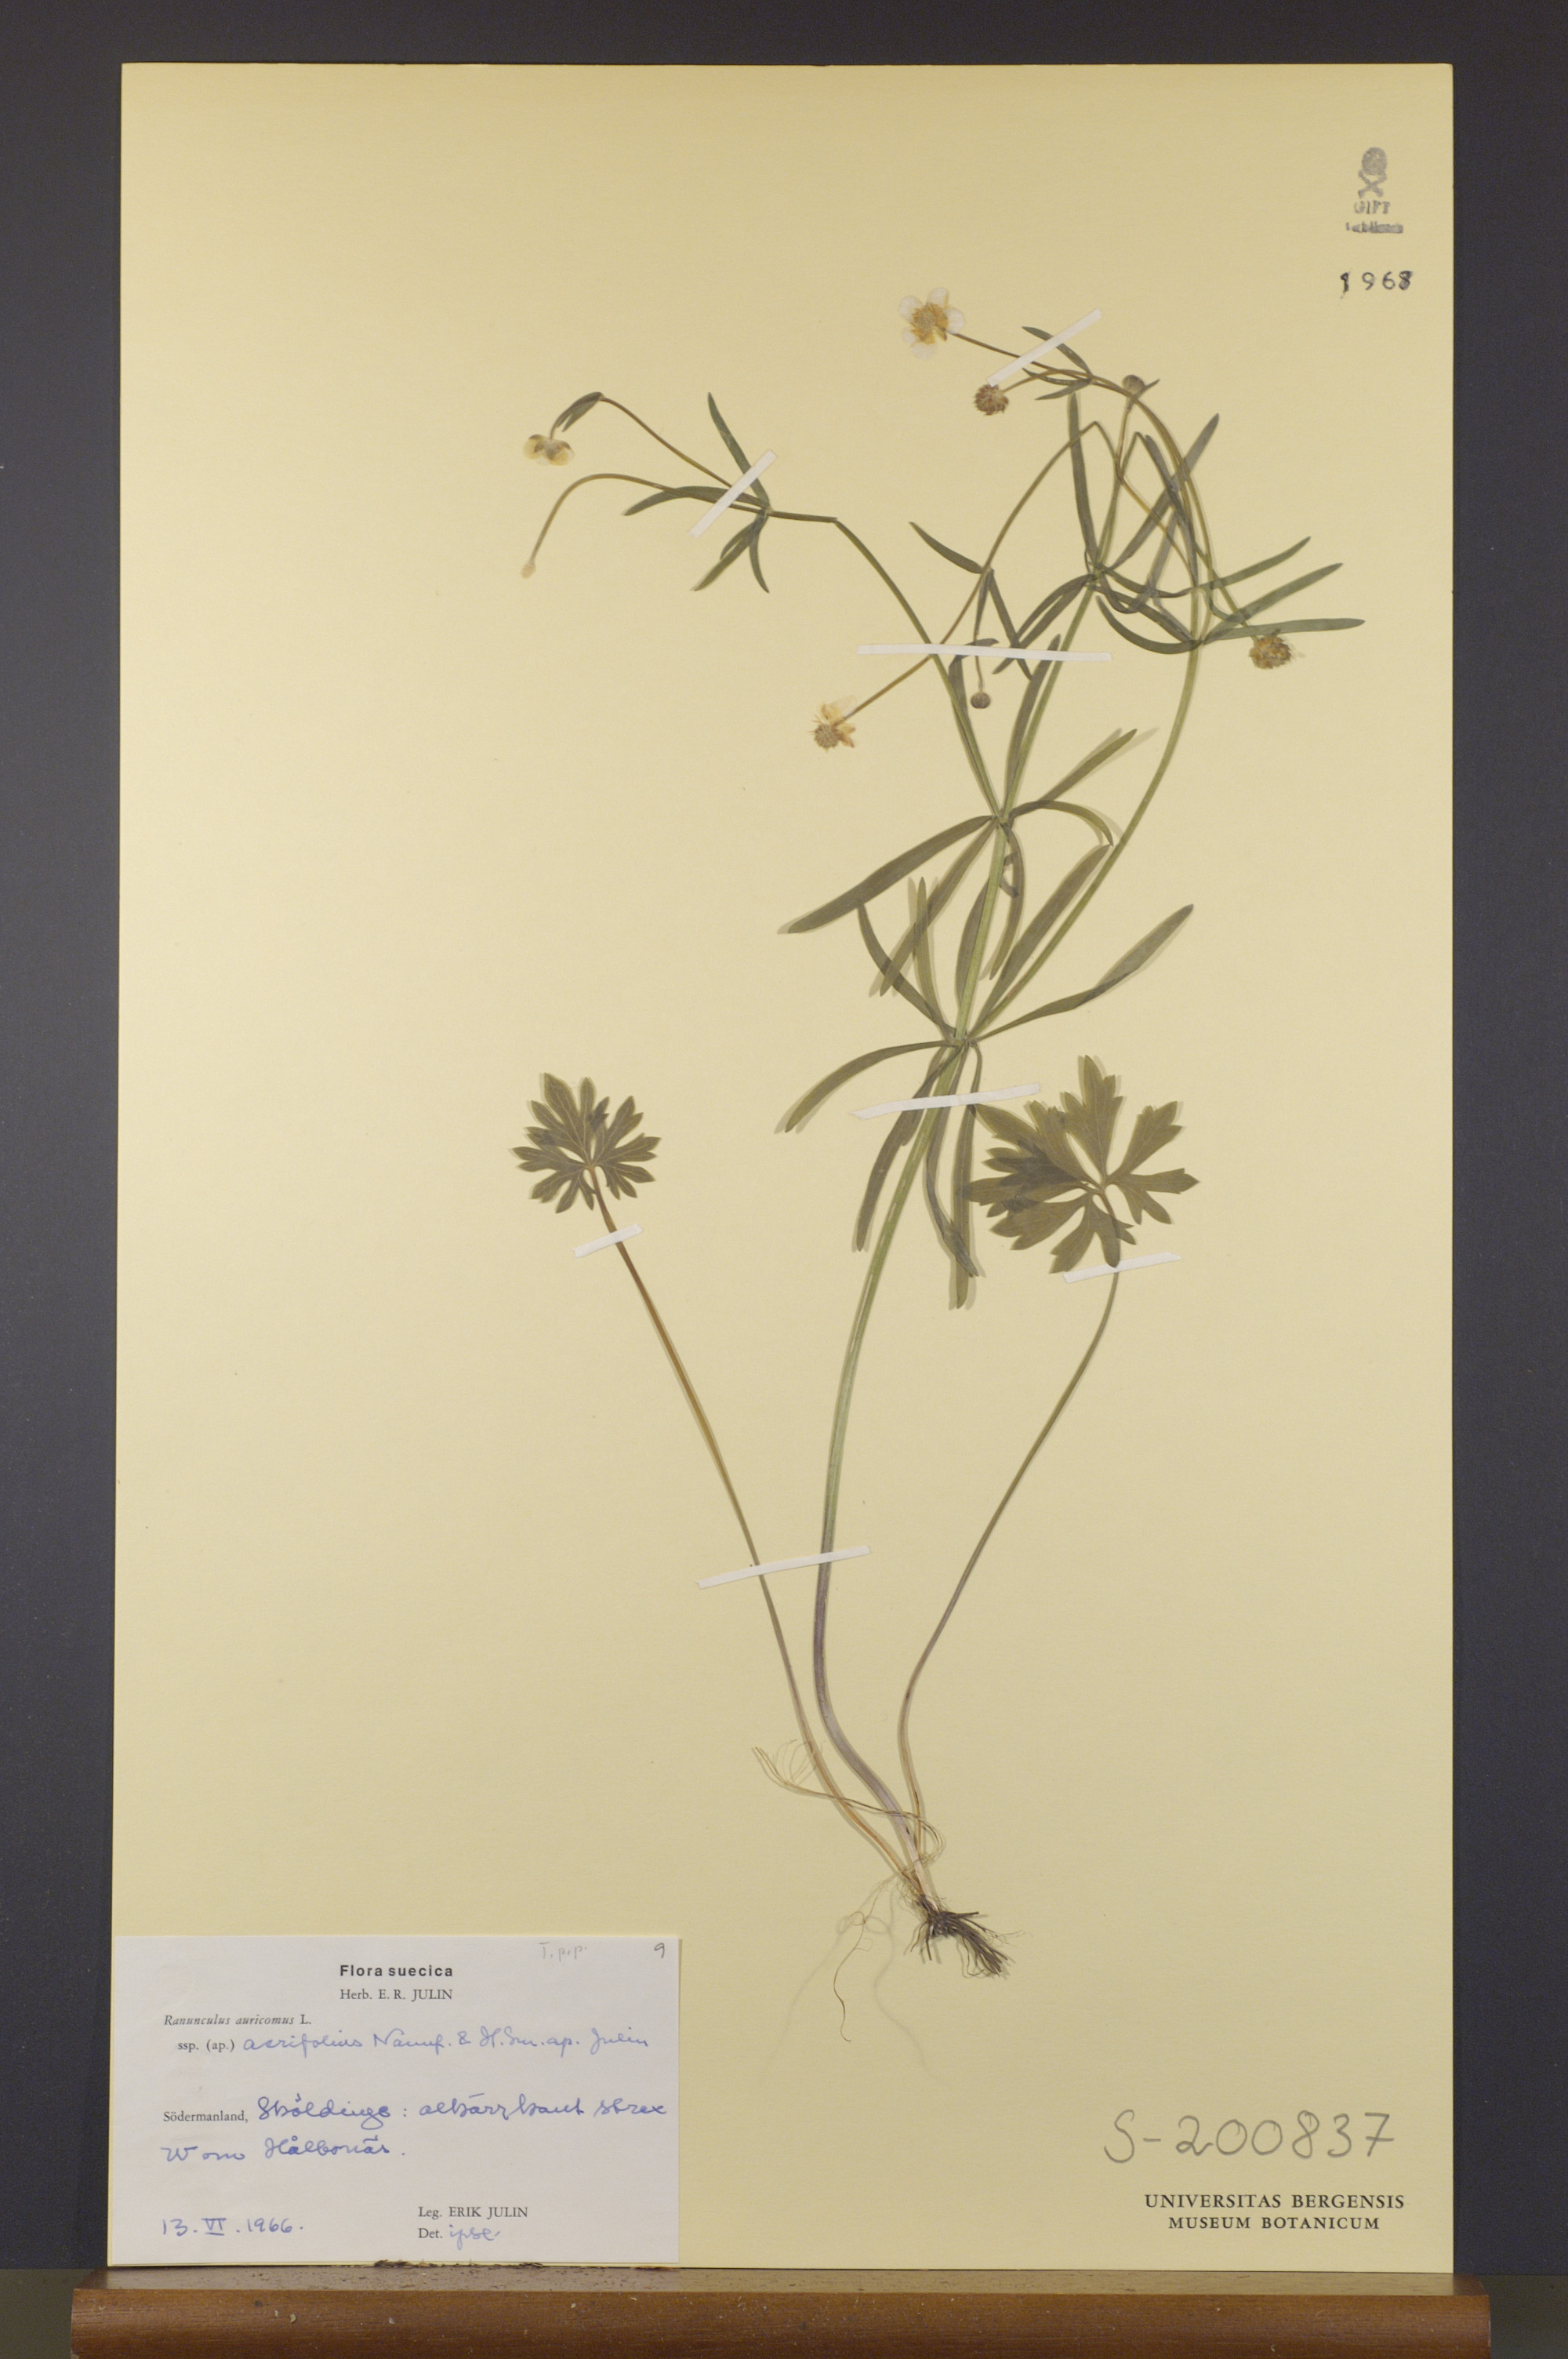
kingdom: Plantae
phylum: Tracheophyta
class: Magnoliopsida
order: Ranunculales
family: Ranunculaceae
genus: Ranunculus
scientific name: Ranunculus acrifolius
